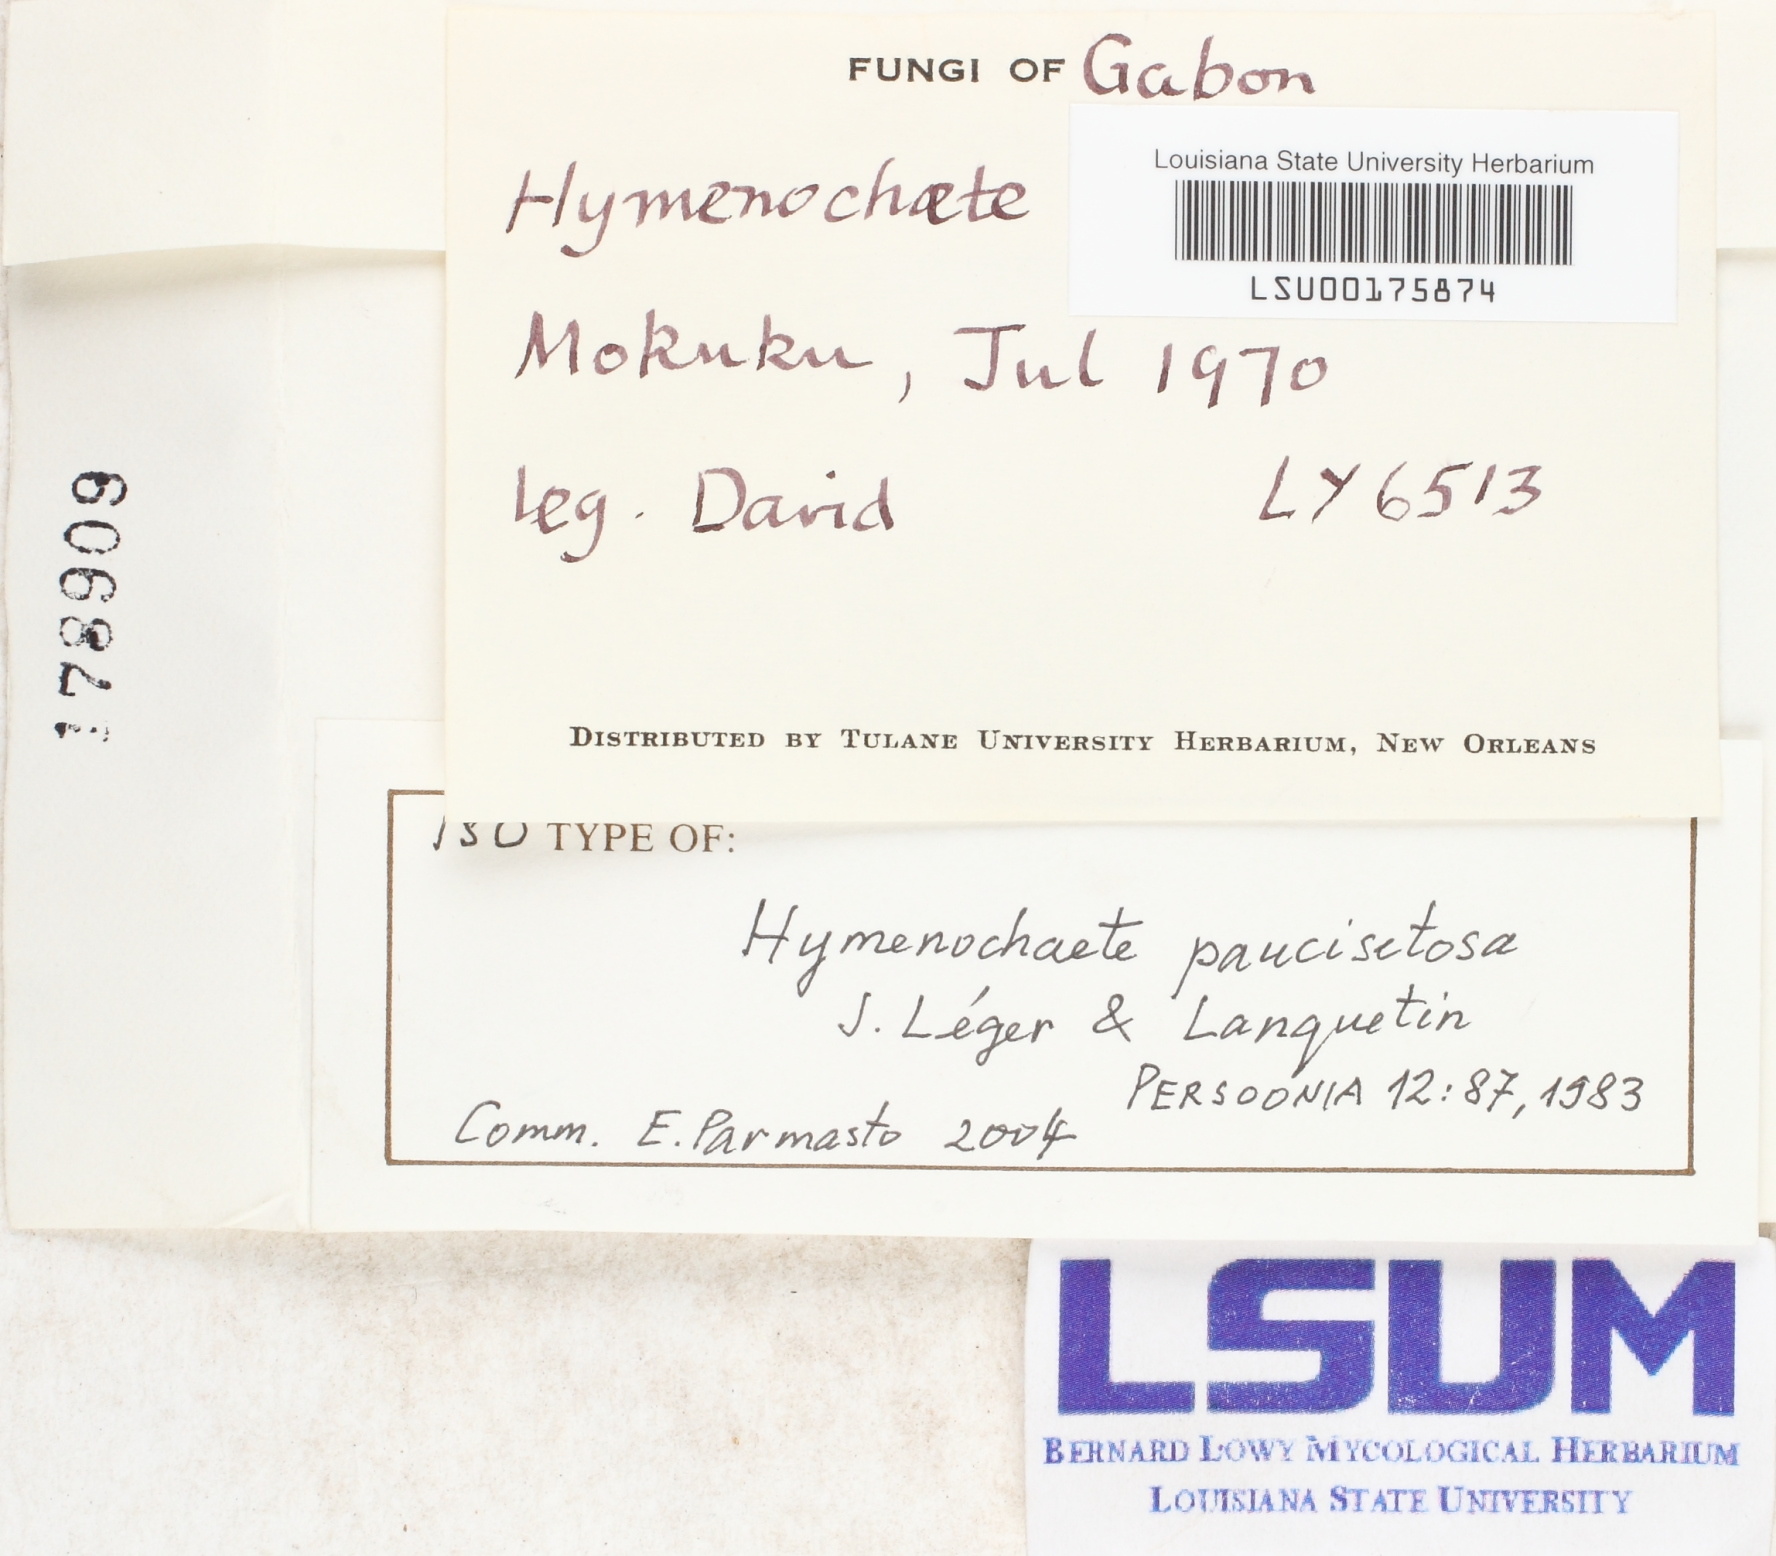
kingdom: Fungi
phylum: Basidiomycota
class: Agaricomycetes
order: Hymenochaetales
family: Hymenochaetaceae
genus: Hymenochaete
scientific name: Hymenochaete paucisetosa
